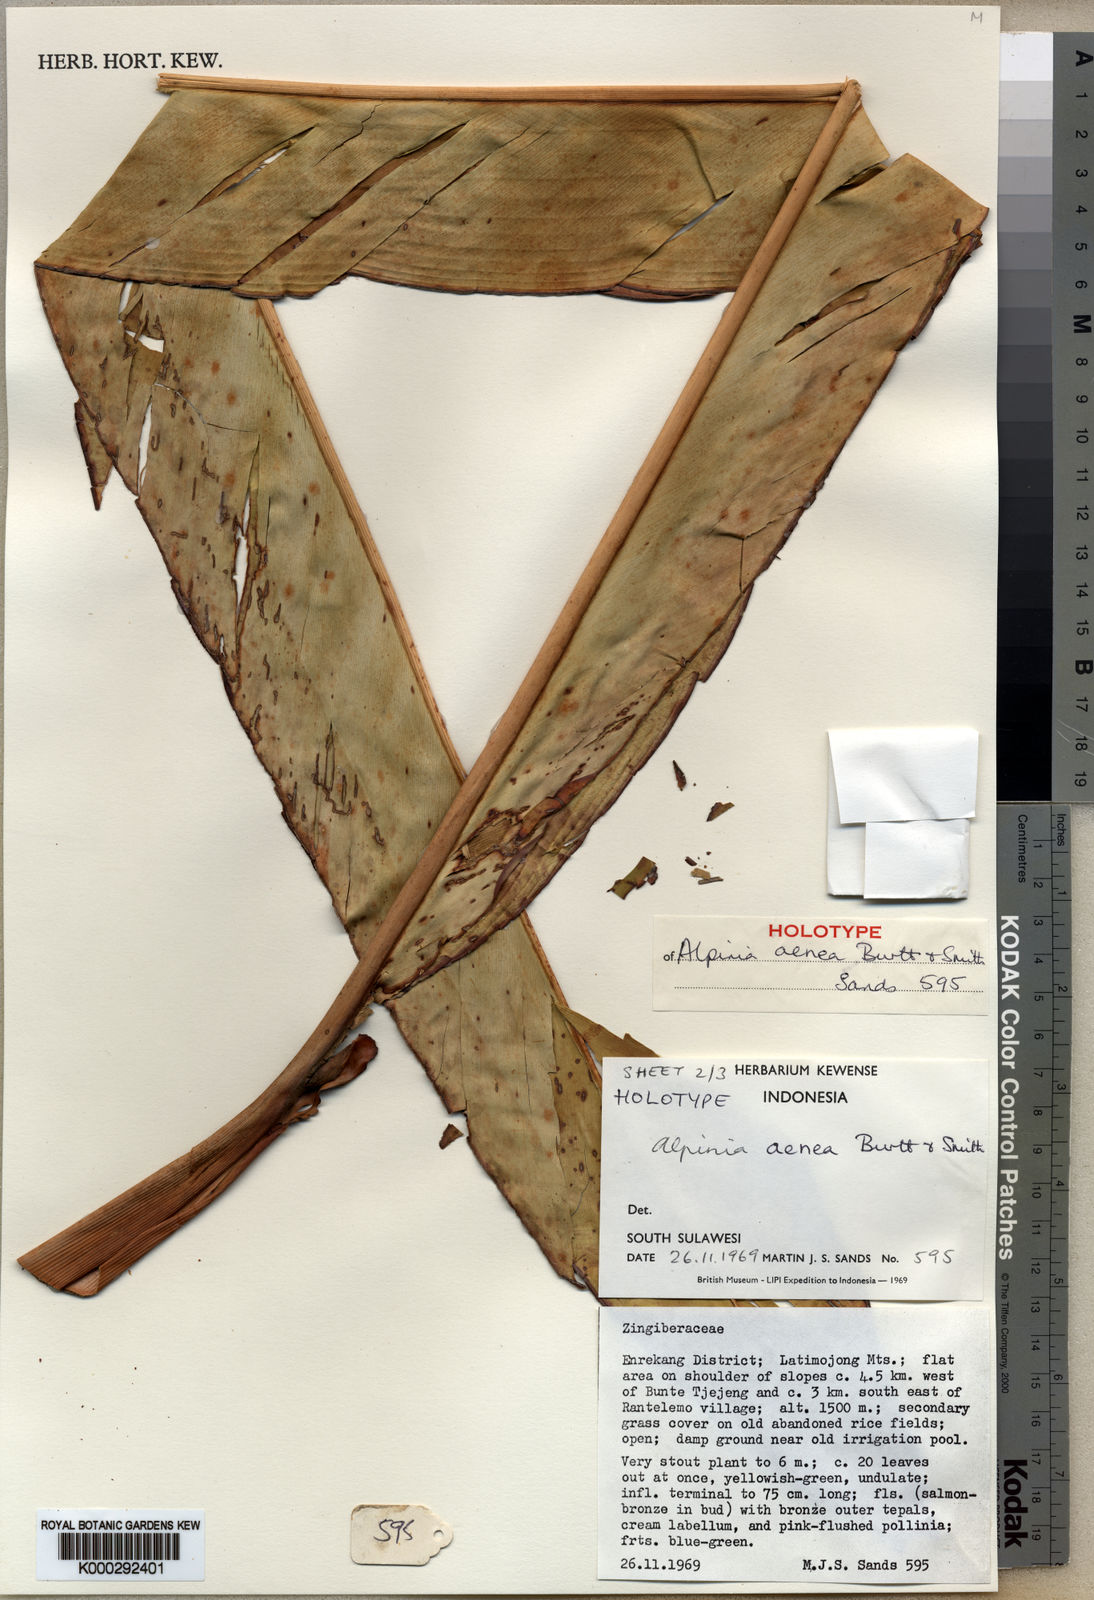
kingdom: Plantae
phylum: Tracheophyta
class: Liliopsida
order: Zingiberales
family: Zingiberaceae
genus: Alpinia
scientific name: Alpinia aenea
